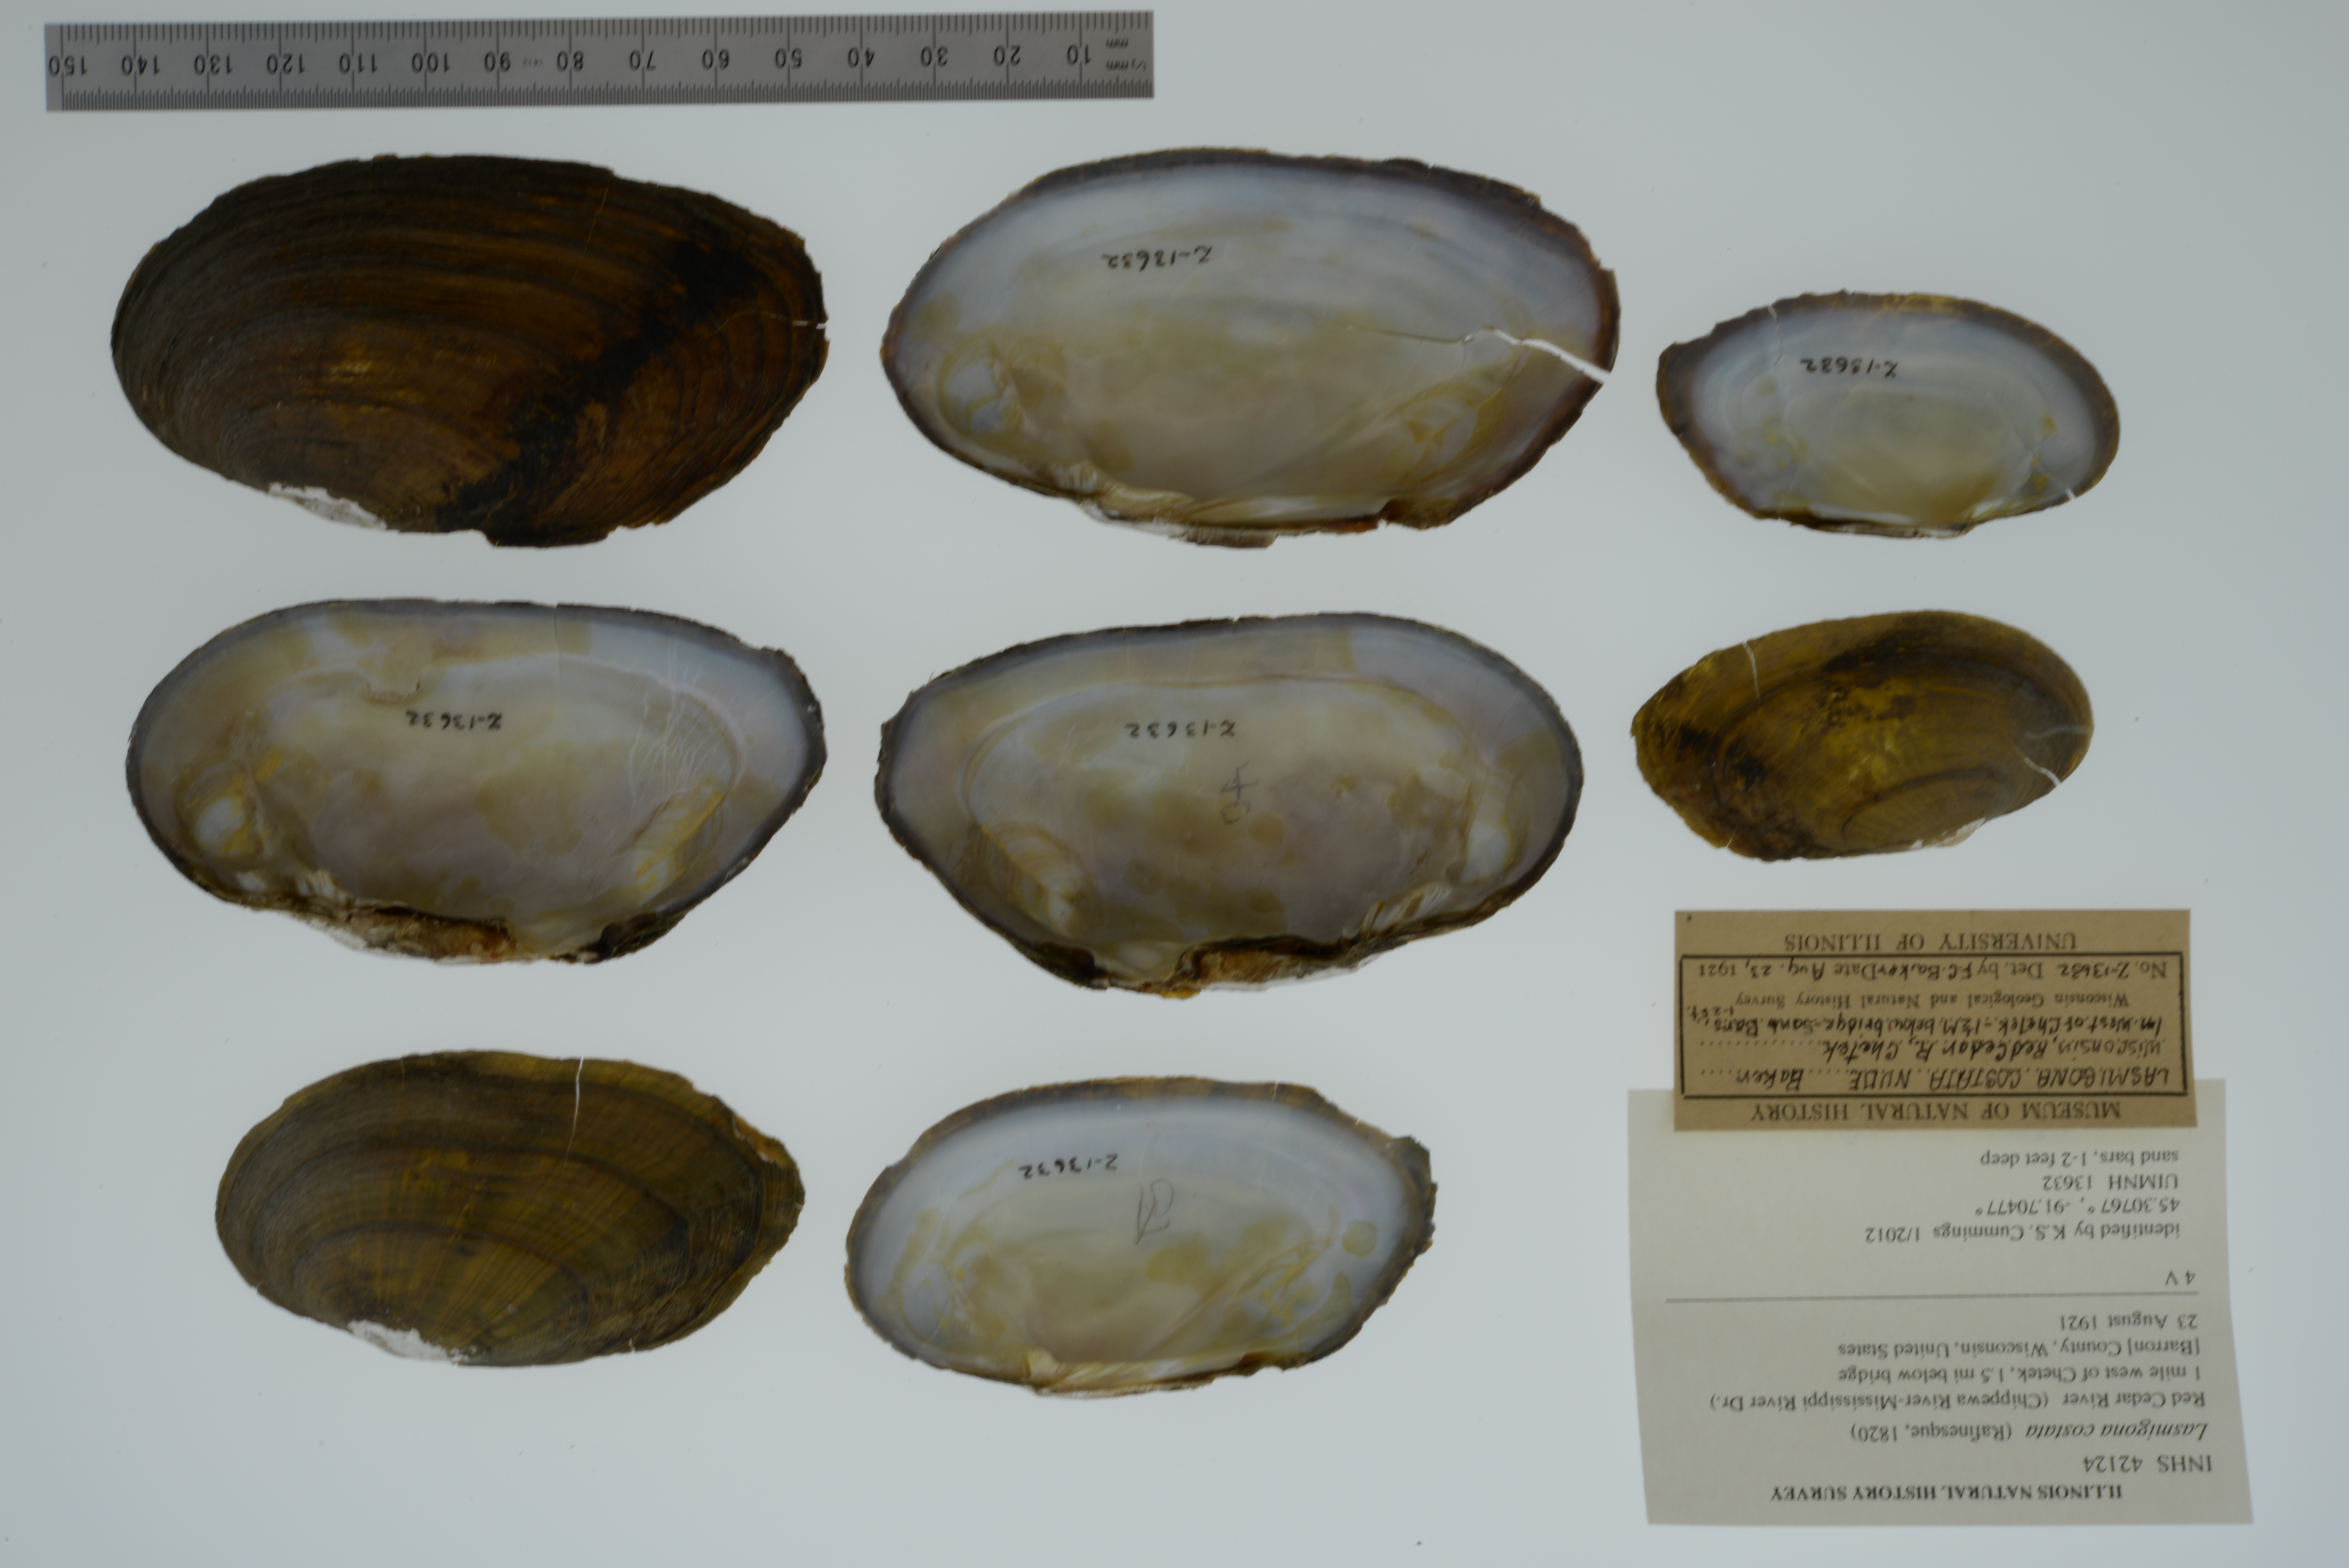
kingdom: Animalia
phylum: Mollusca
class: Bivalvia
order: Unionida
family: Unionidae
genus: Lasmigona
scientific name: Lasmigona costata
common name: Flutedshell
